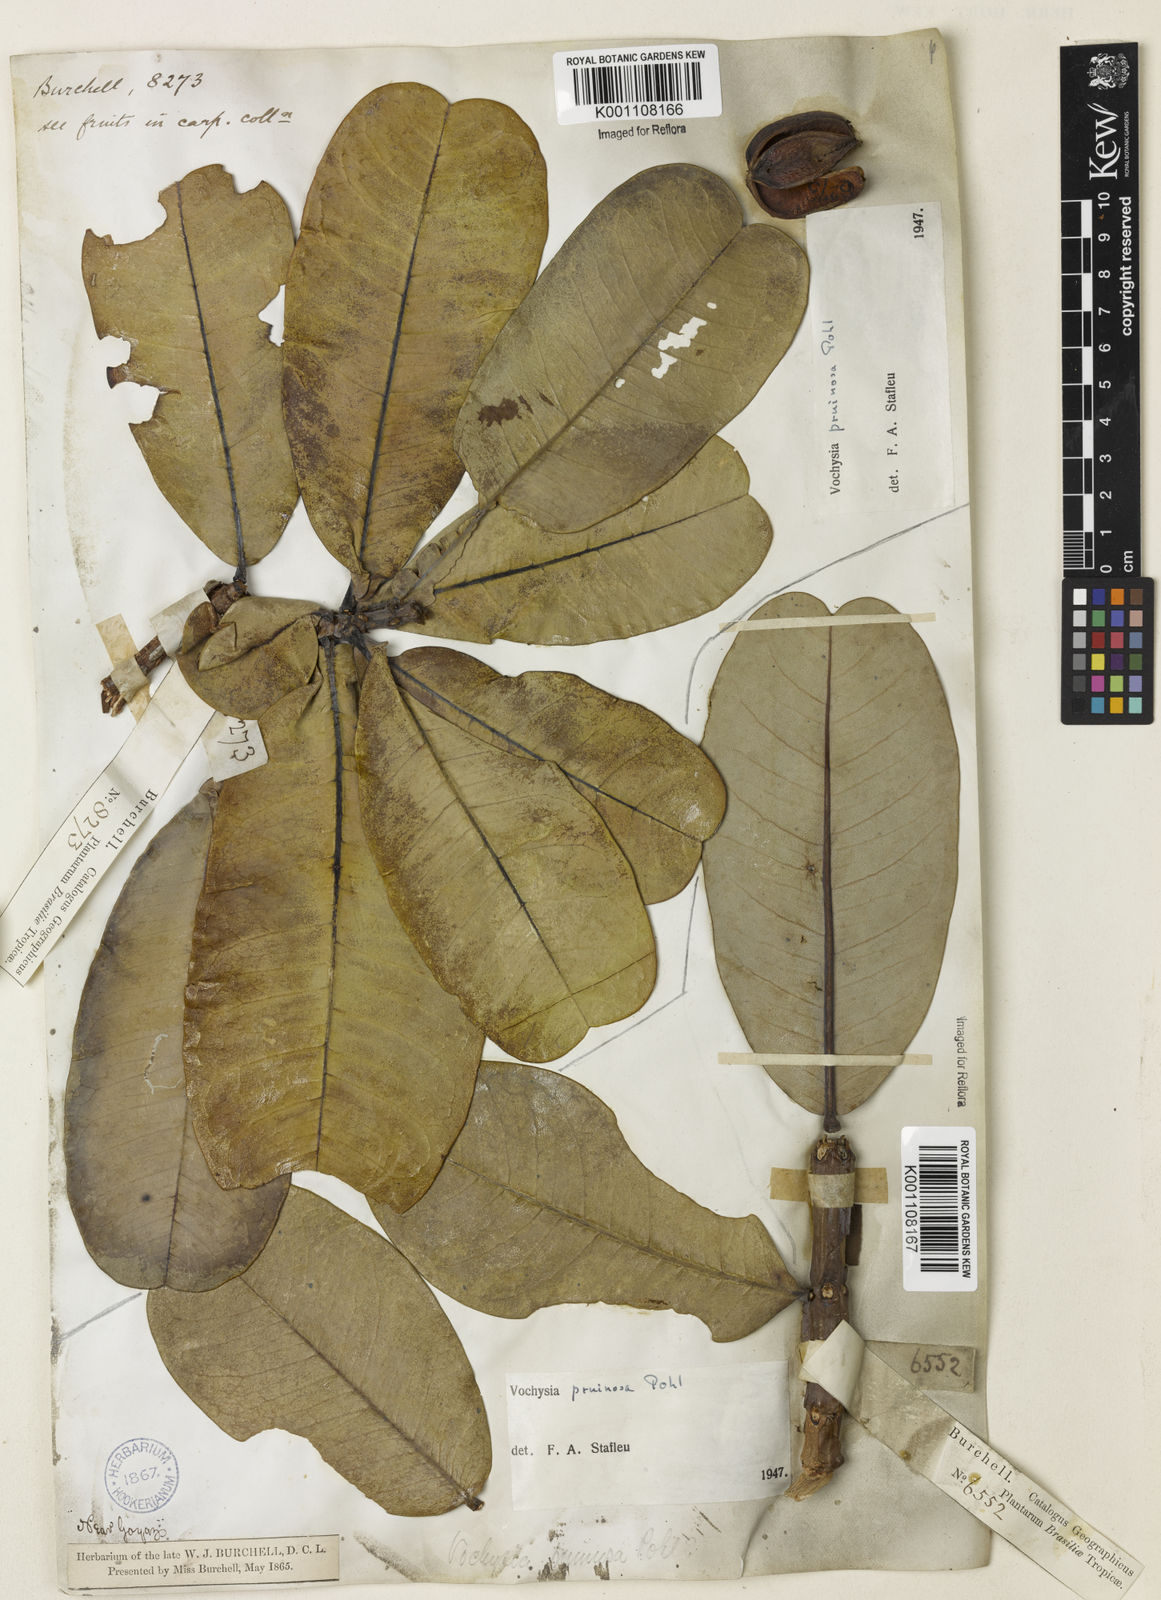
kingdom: Plantae
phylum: Tracheophyta
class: Magnoliopsida
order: Myrtales
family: Vochysiaceae
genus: Vochysia
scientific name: Vochysia pruinosa
